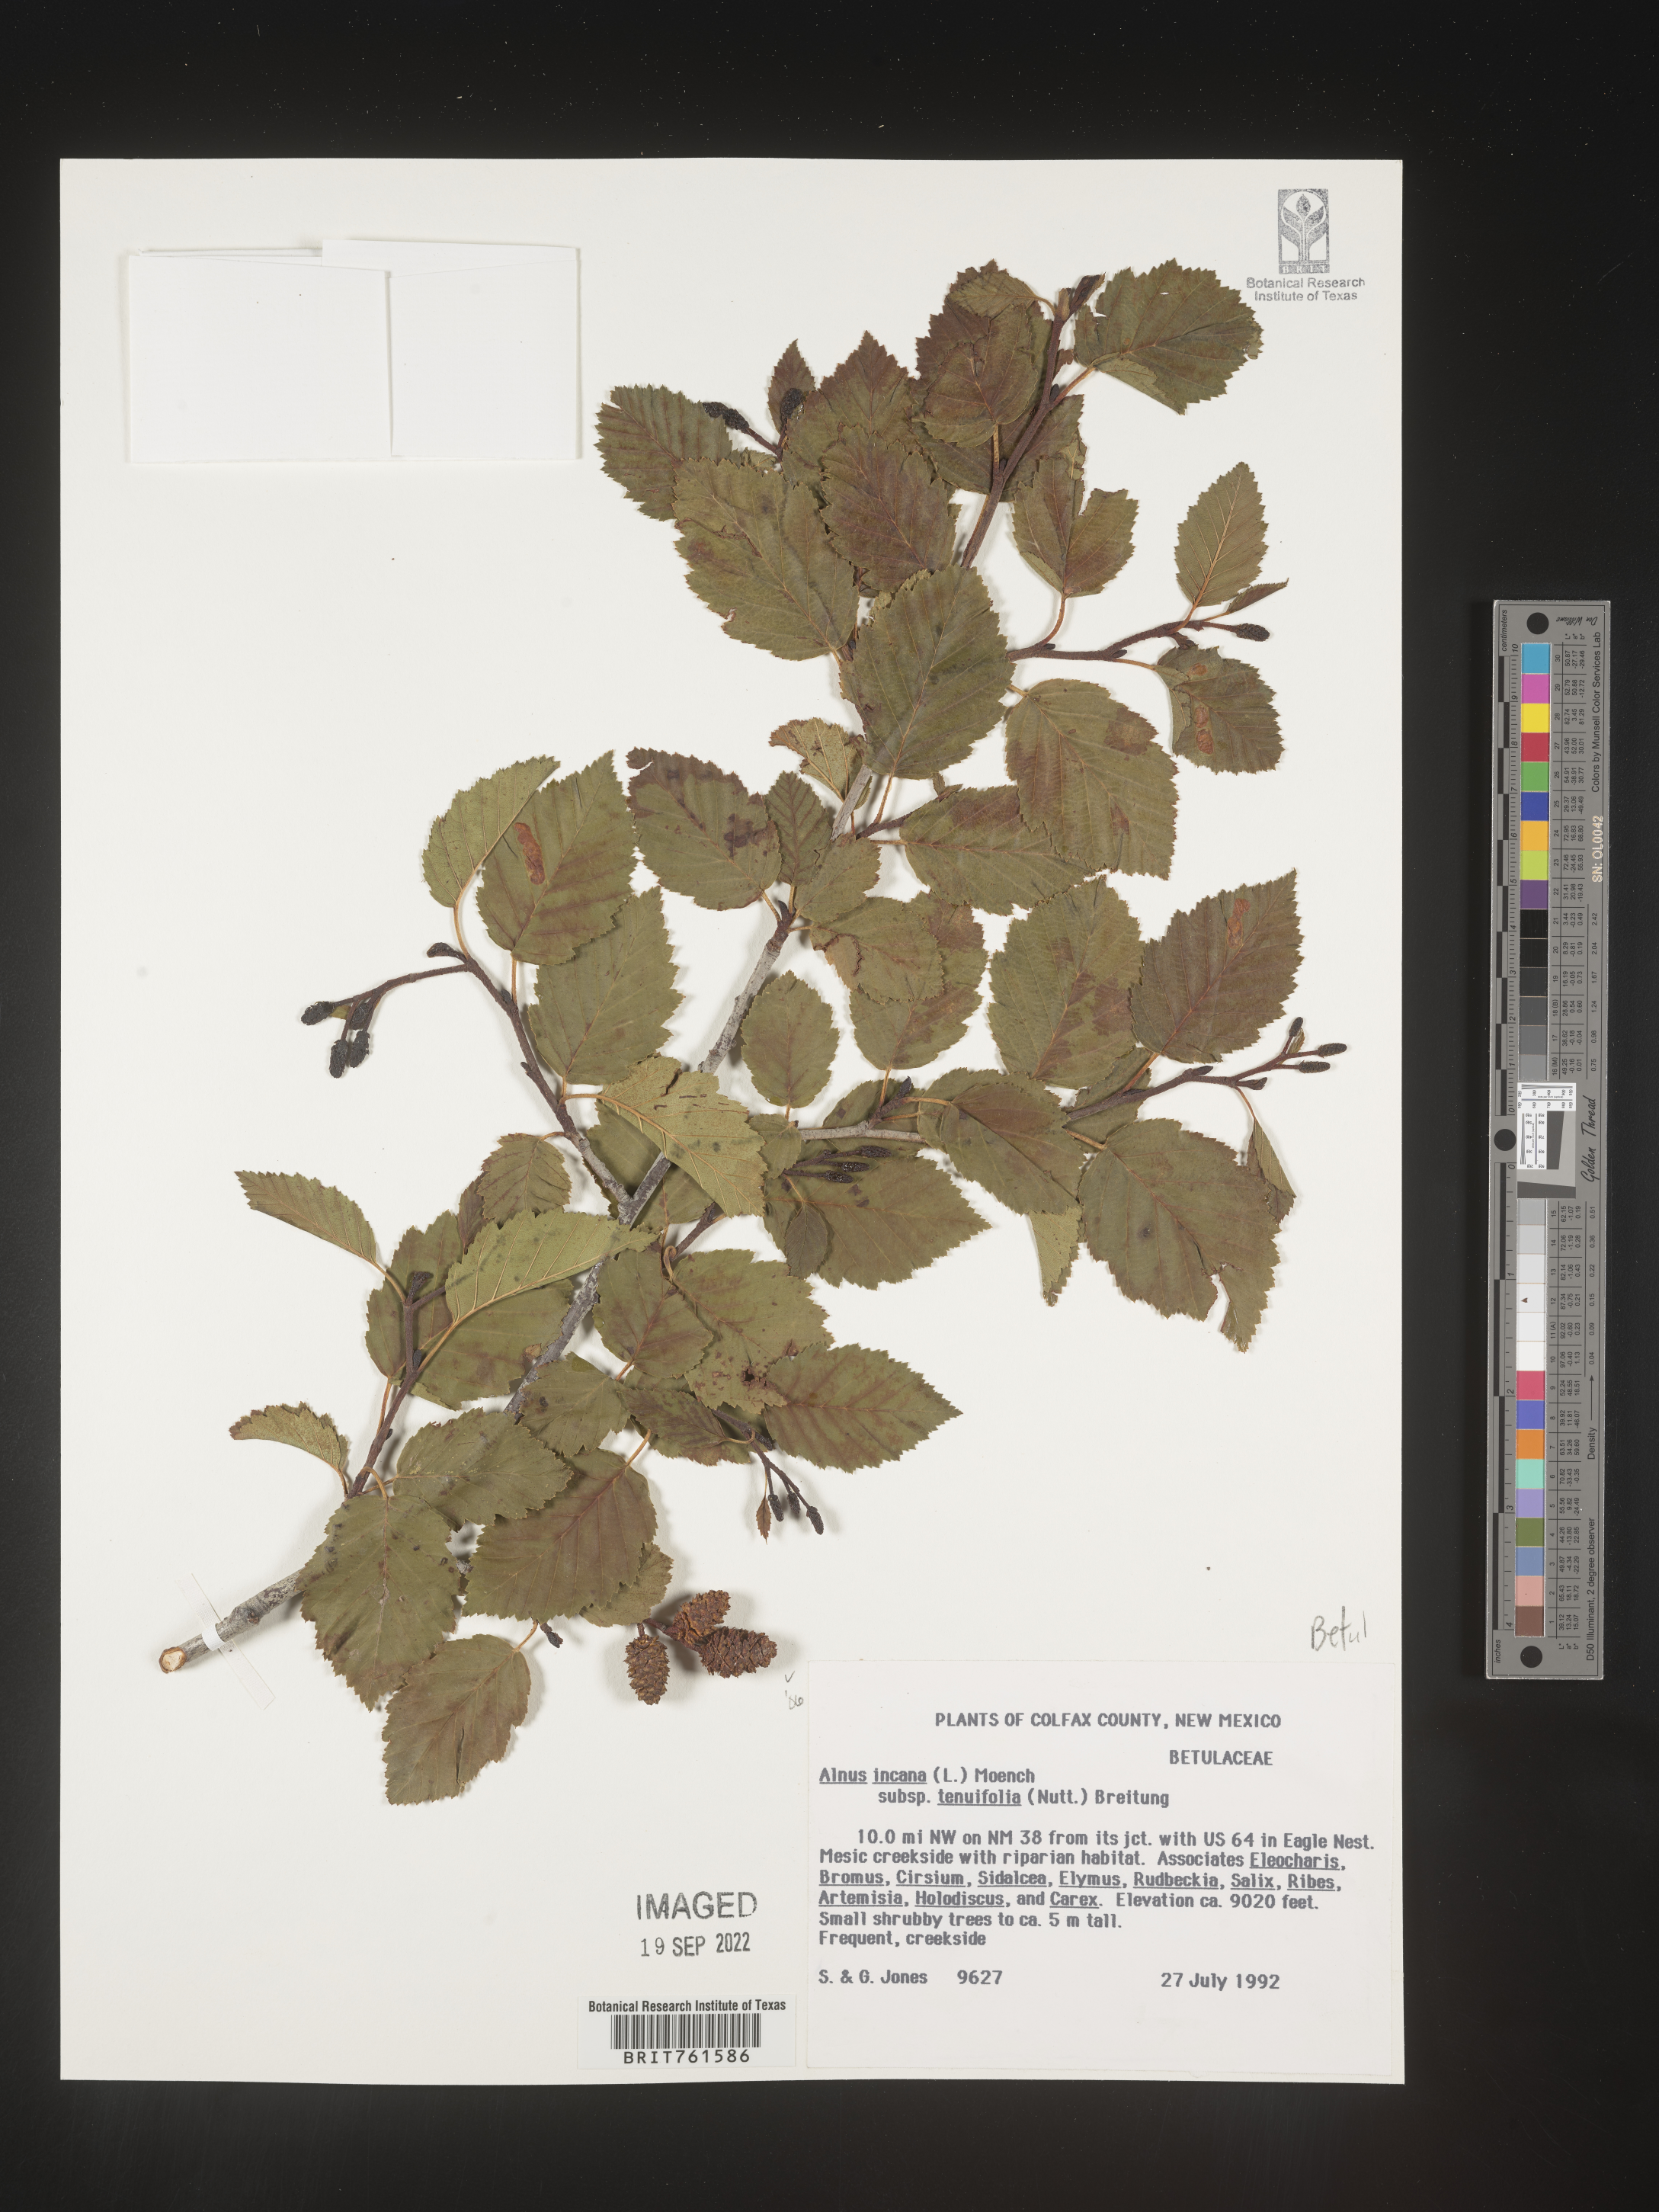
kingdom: Plantae
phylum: Tracheophyta
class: Magnoliopsida
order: Fagales
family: Betulaceae
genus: Alnus
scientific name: Alnus incana
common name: Grey alder
